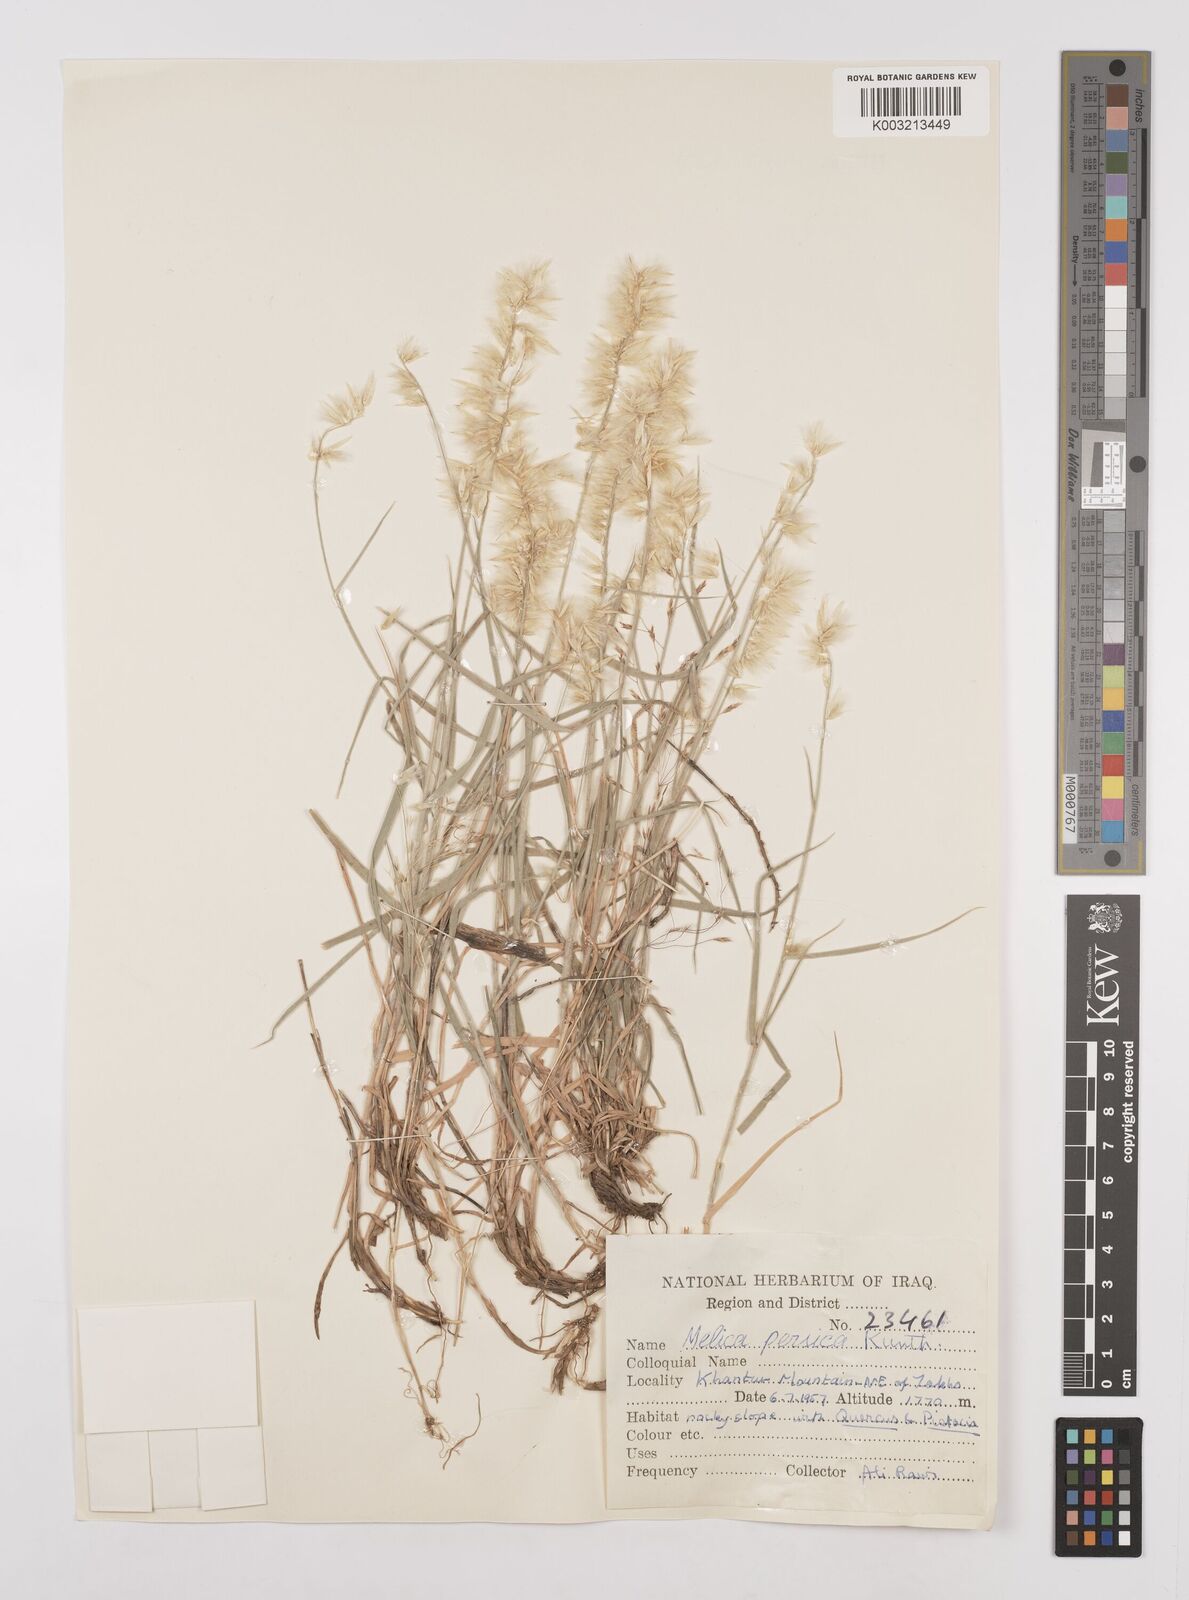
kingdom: Plantae
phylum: Tracheophyta
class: Liliopsida
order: Poales
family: Poaceae
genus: Melica
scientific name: Melica persica
